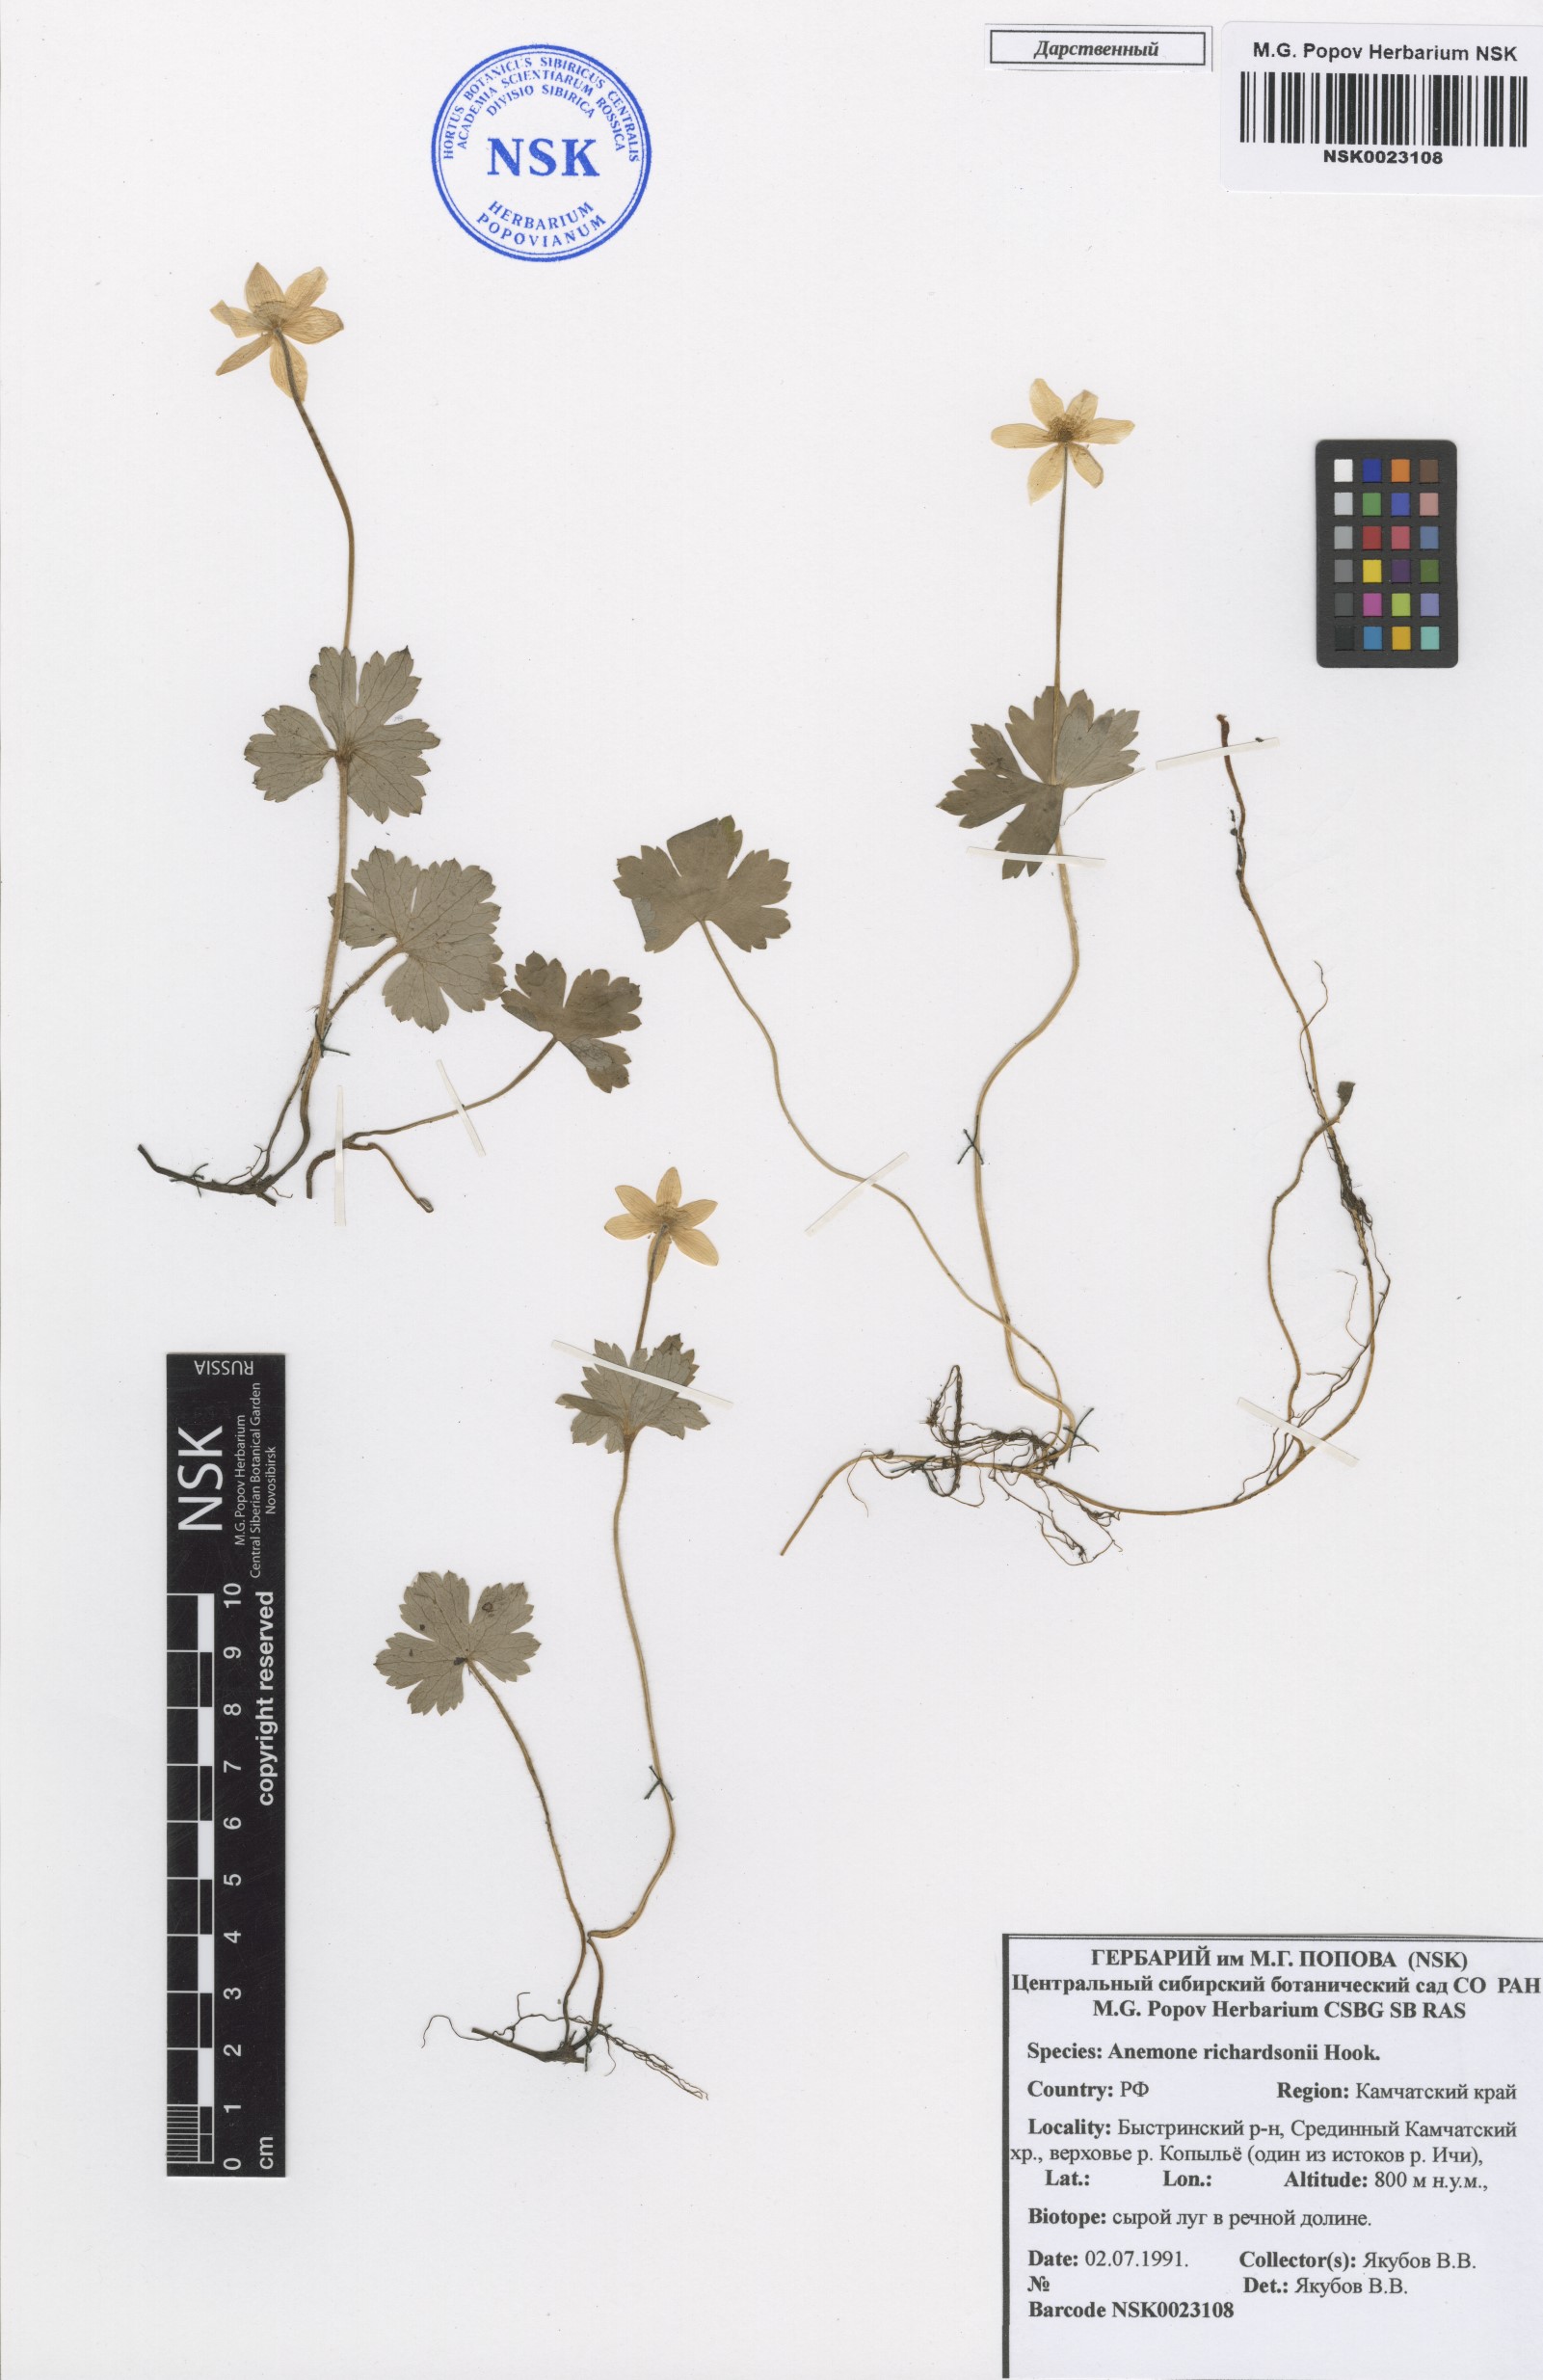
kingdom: Plantae
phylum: Tracheophyta
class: Magnoliopsida
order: Ranunculales
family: Ranunculaceae
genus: Anemonastrum
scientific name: Anemonastrum richardsonii
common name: Richardson's anemone
